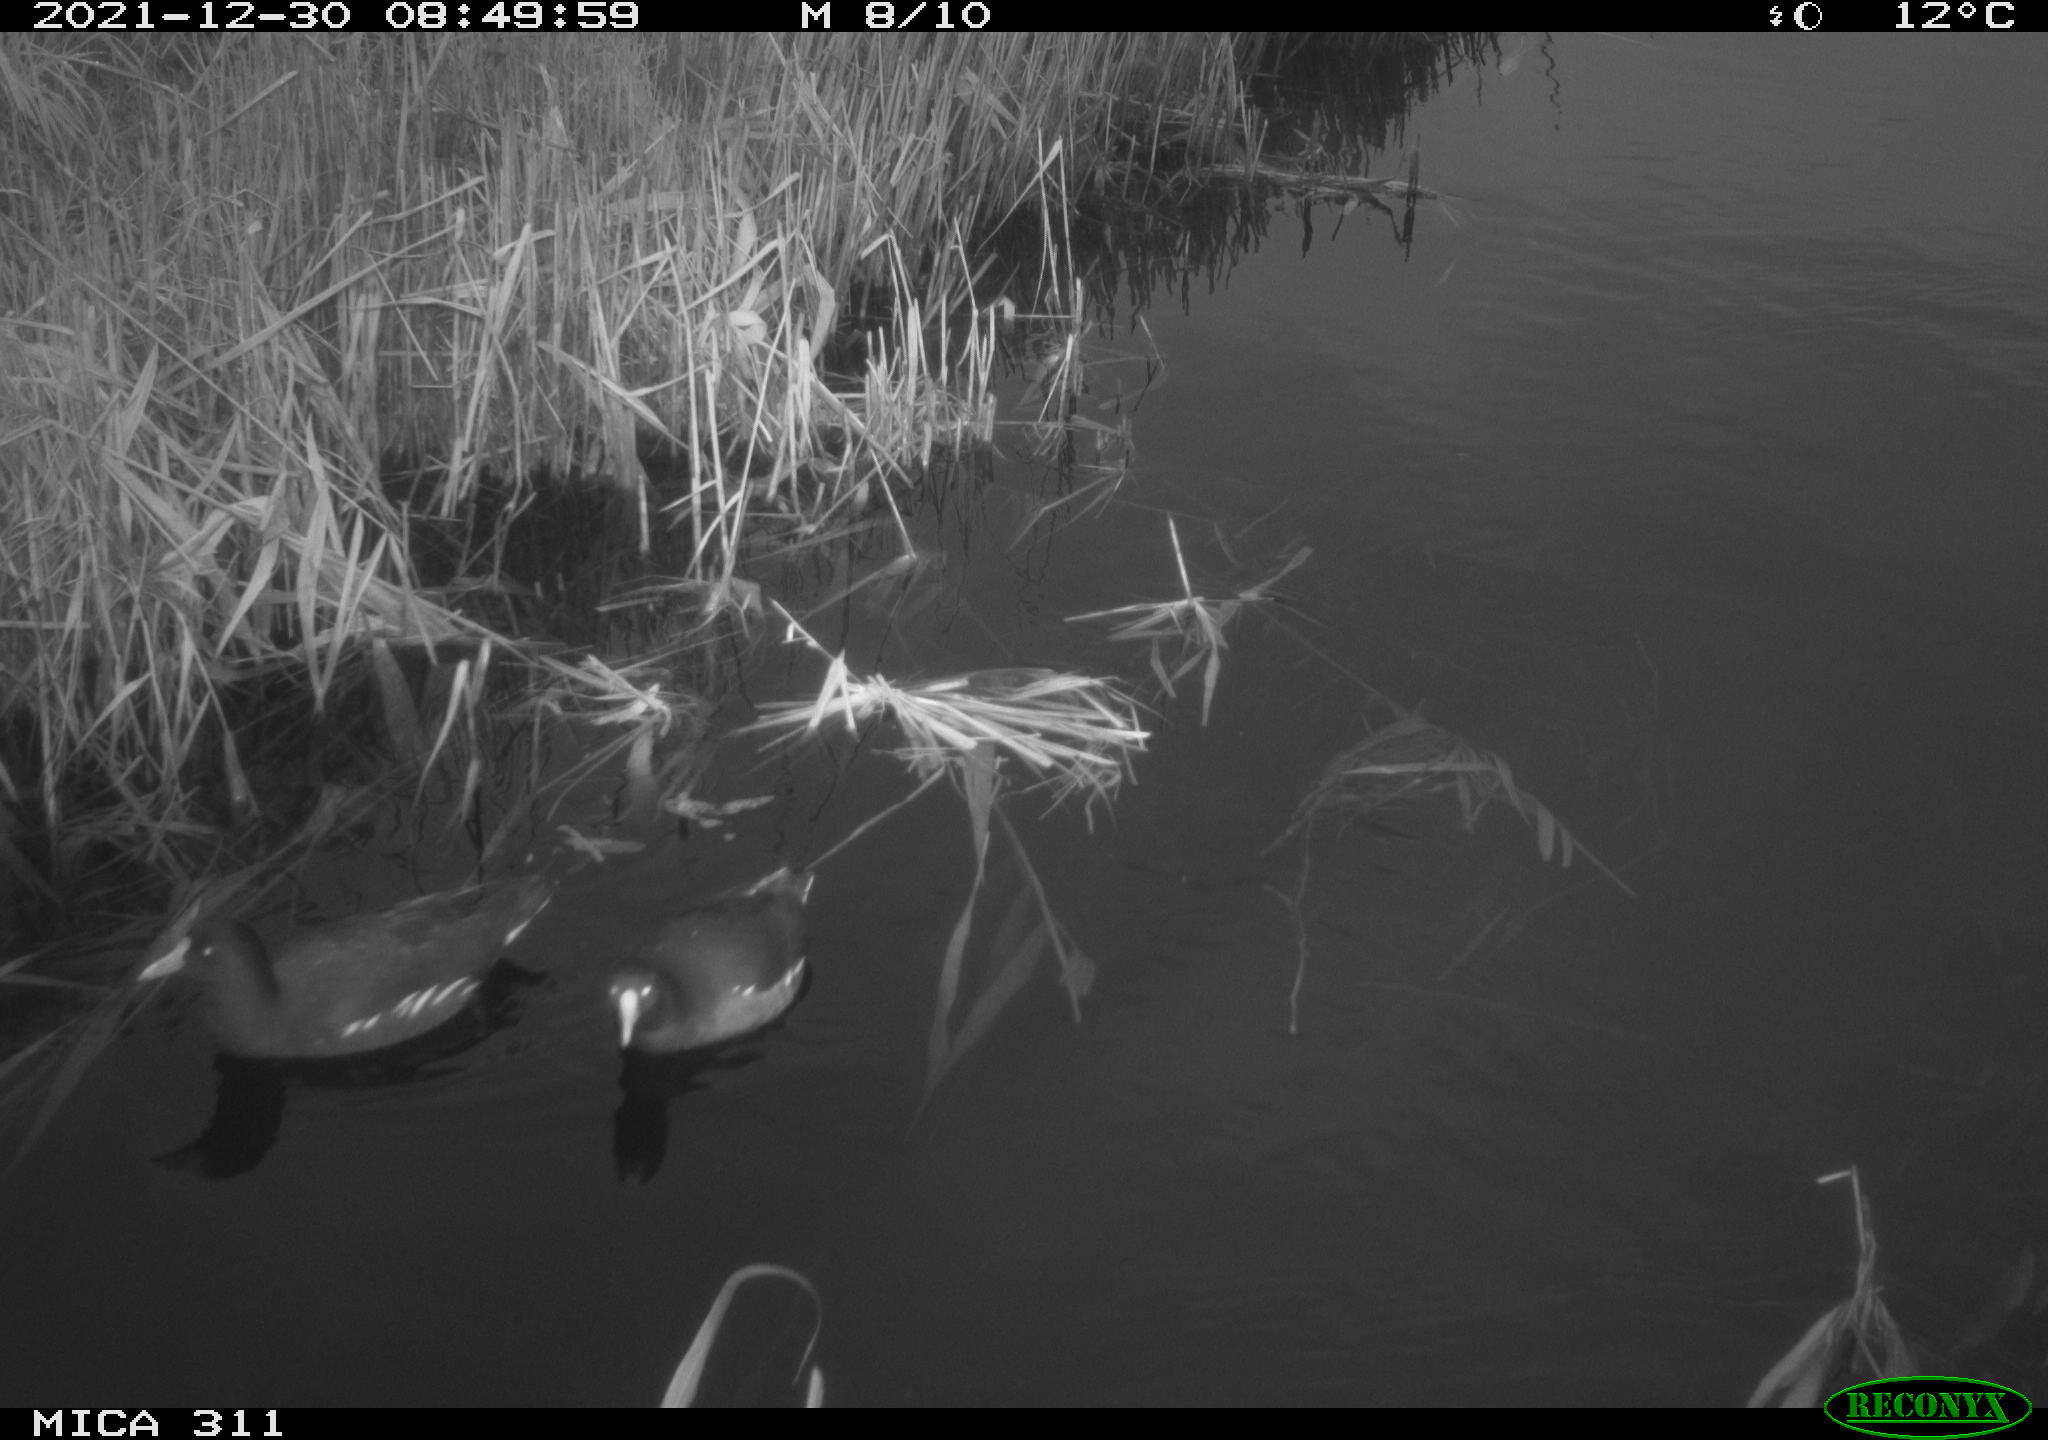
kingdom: Animalia
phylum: Chordata
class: Aves
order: Gruiformes
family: Rallidae
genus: Gallinula
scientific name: Gallinula chloropus
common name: Common moorhen
